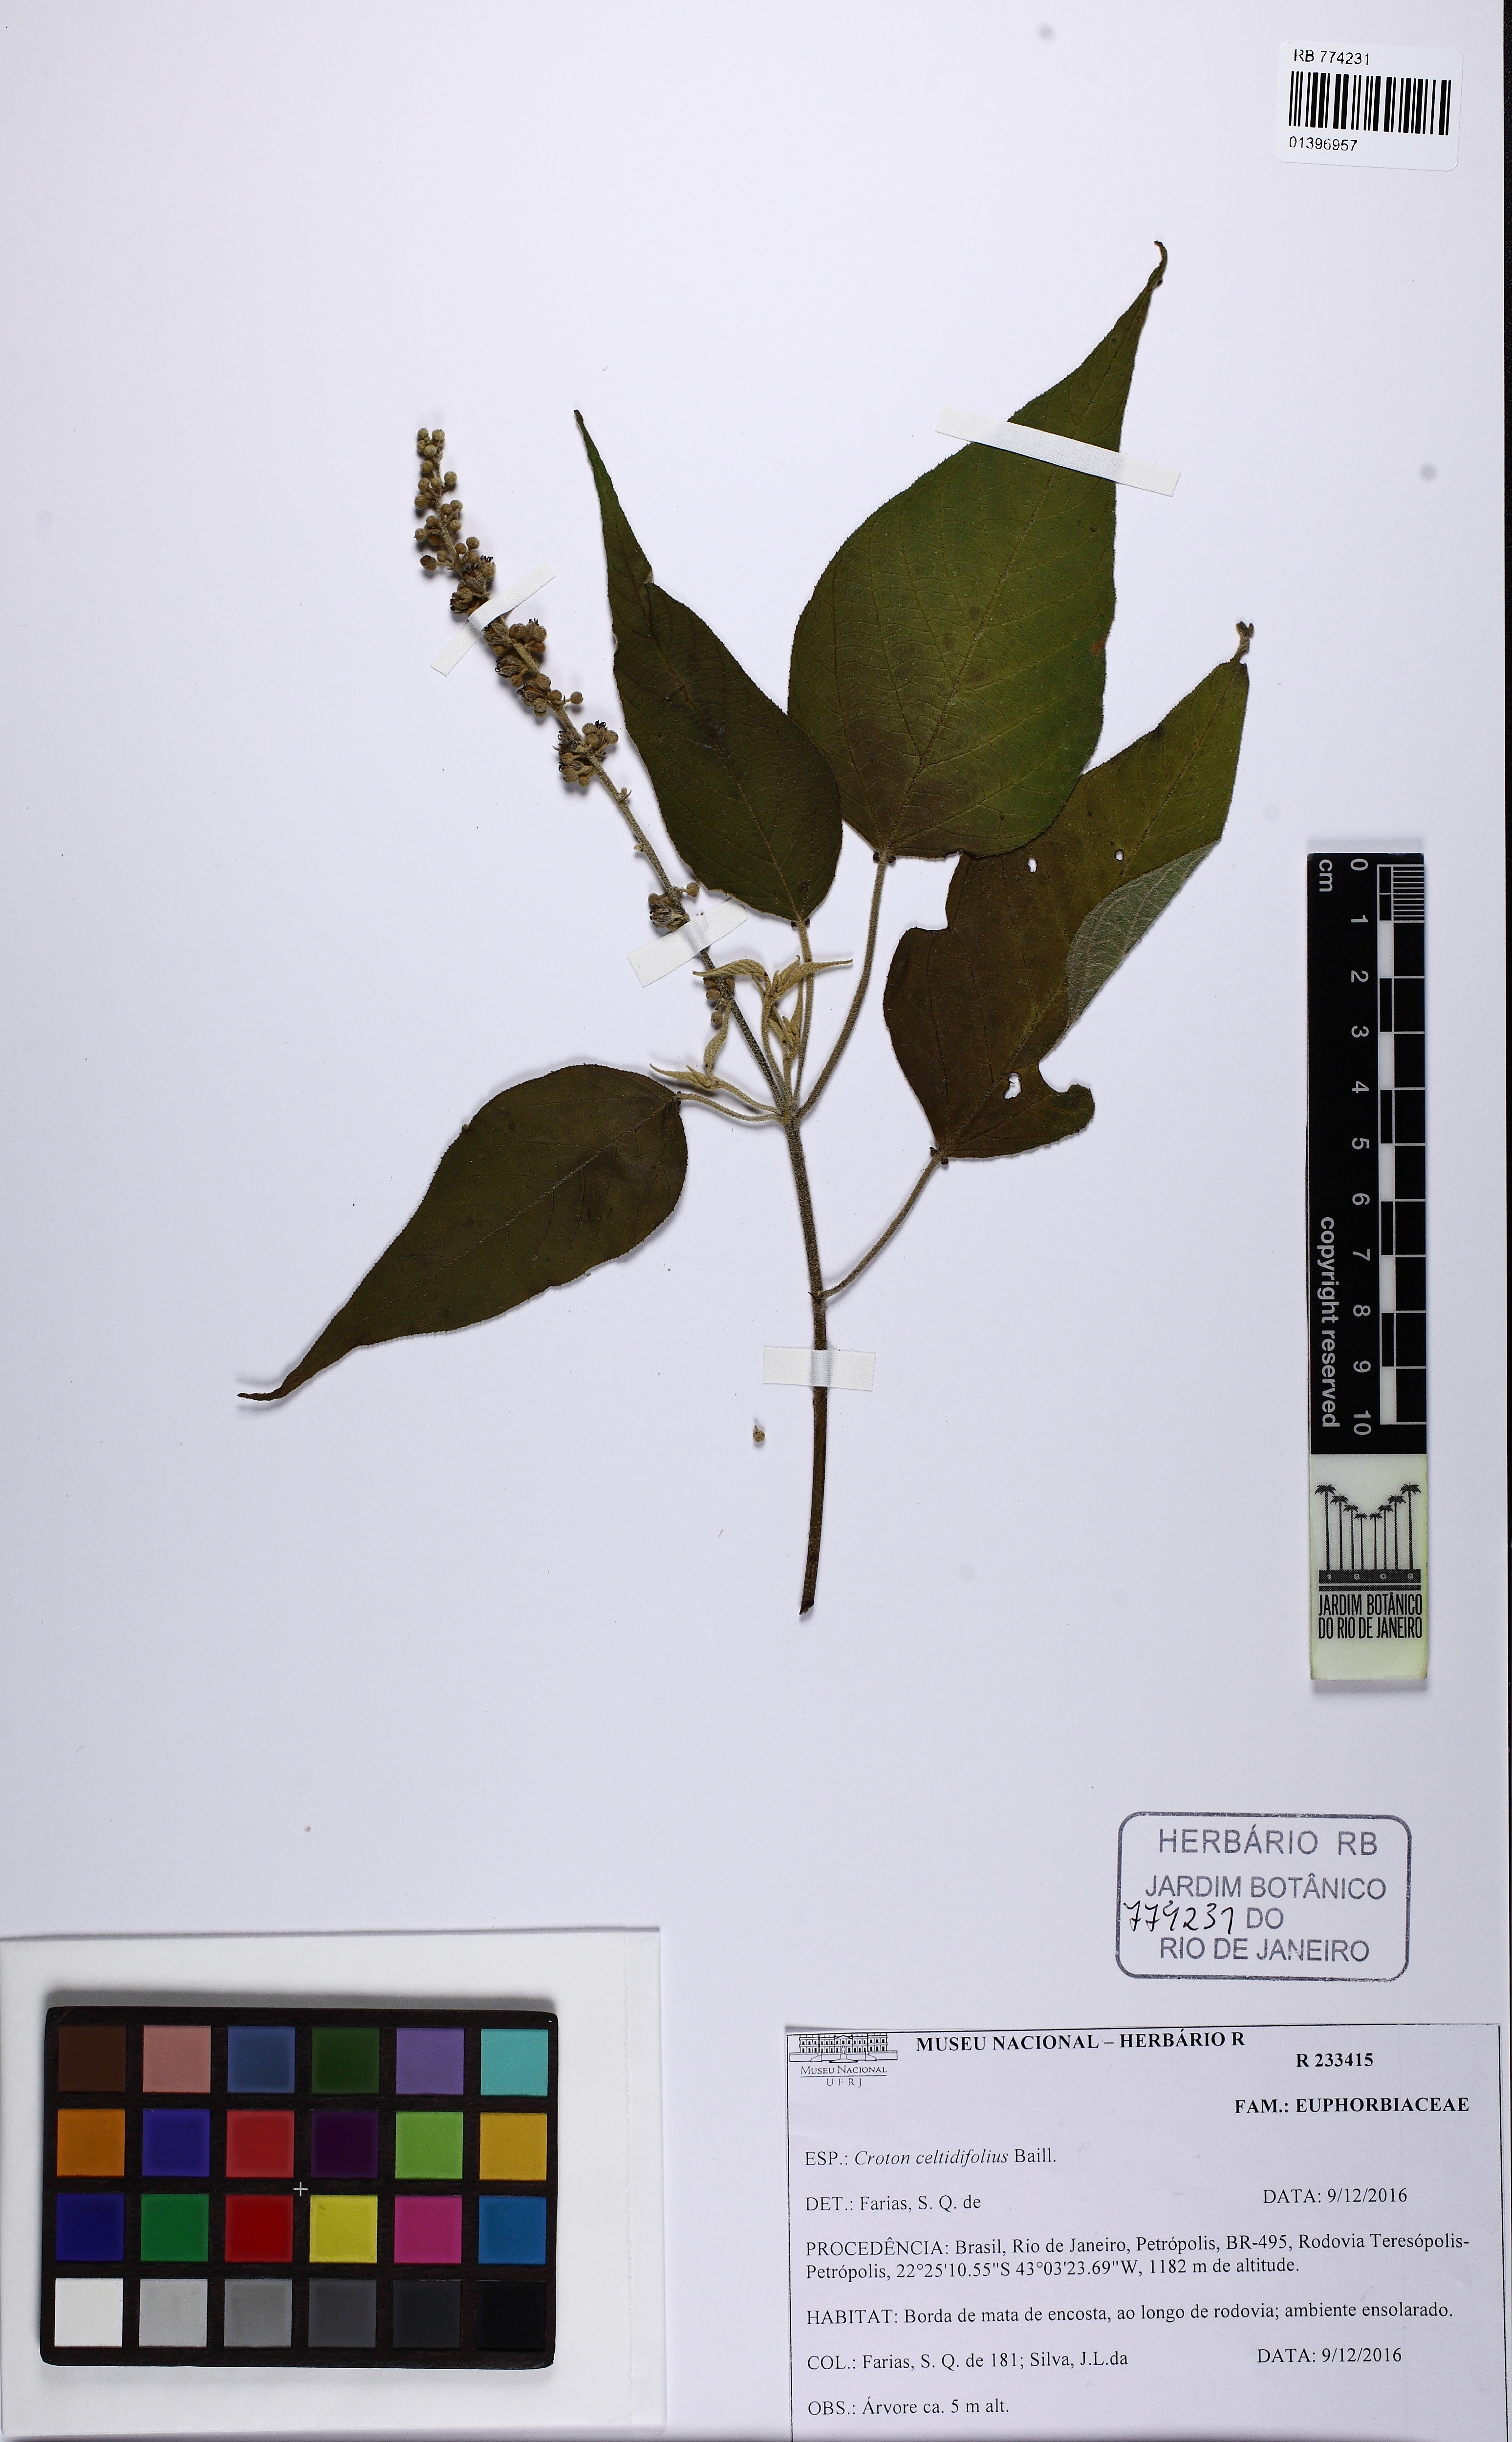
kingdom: Plantae
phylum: Tracheophyta
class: Magnoliopsida
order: Malpighiales
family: Euphorbiaceae
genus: Croton
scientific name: Croton celtidifolius
